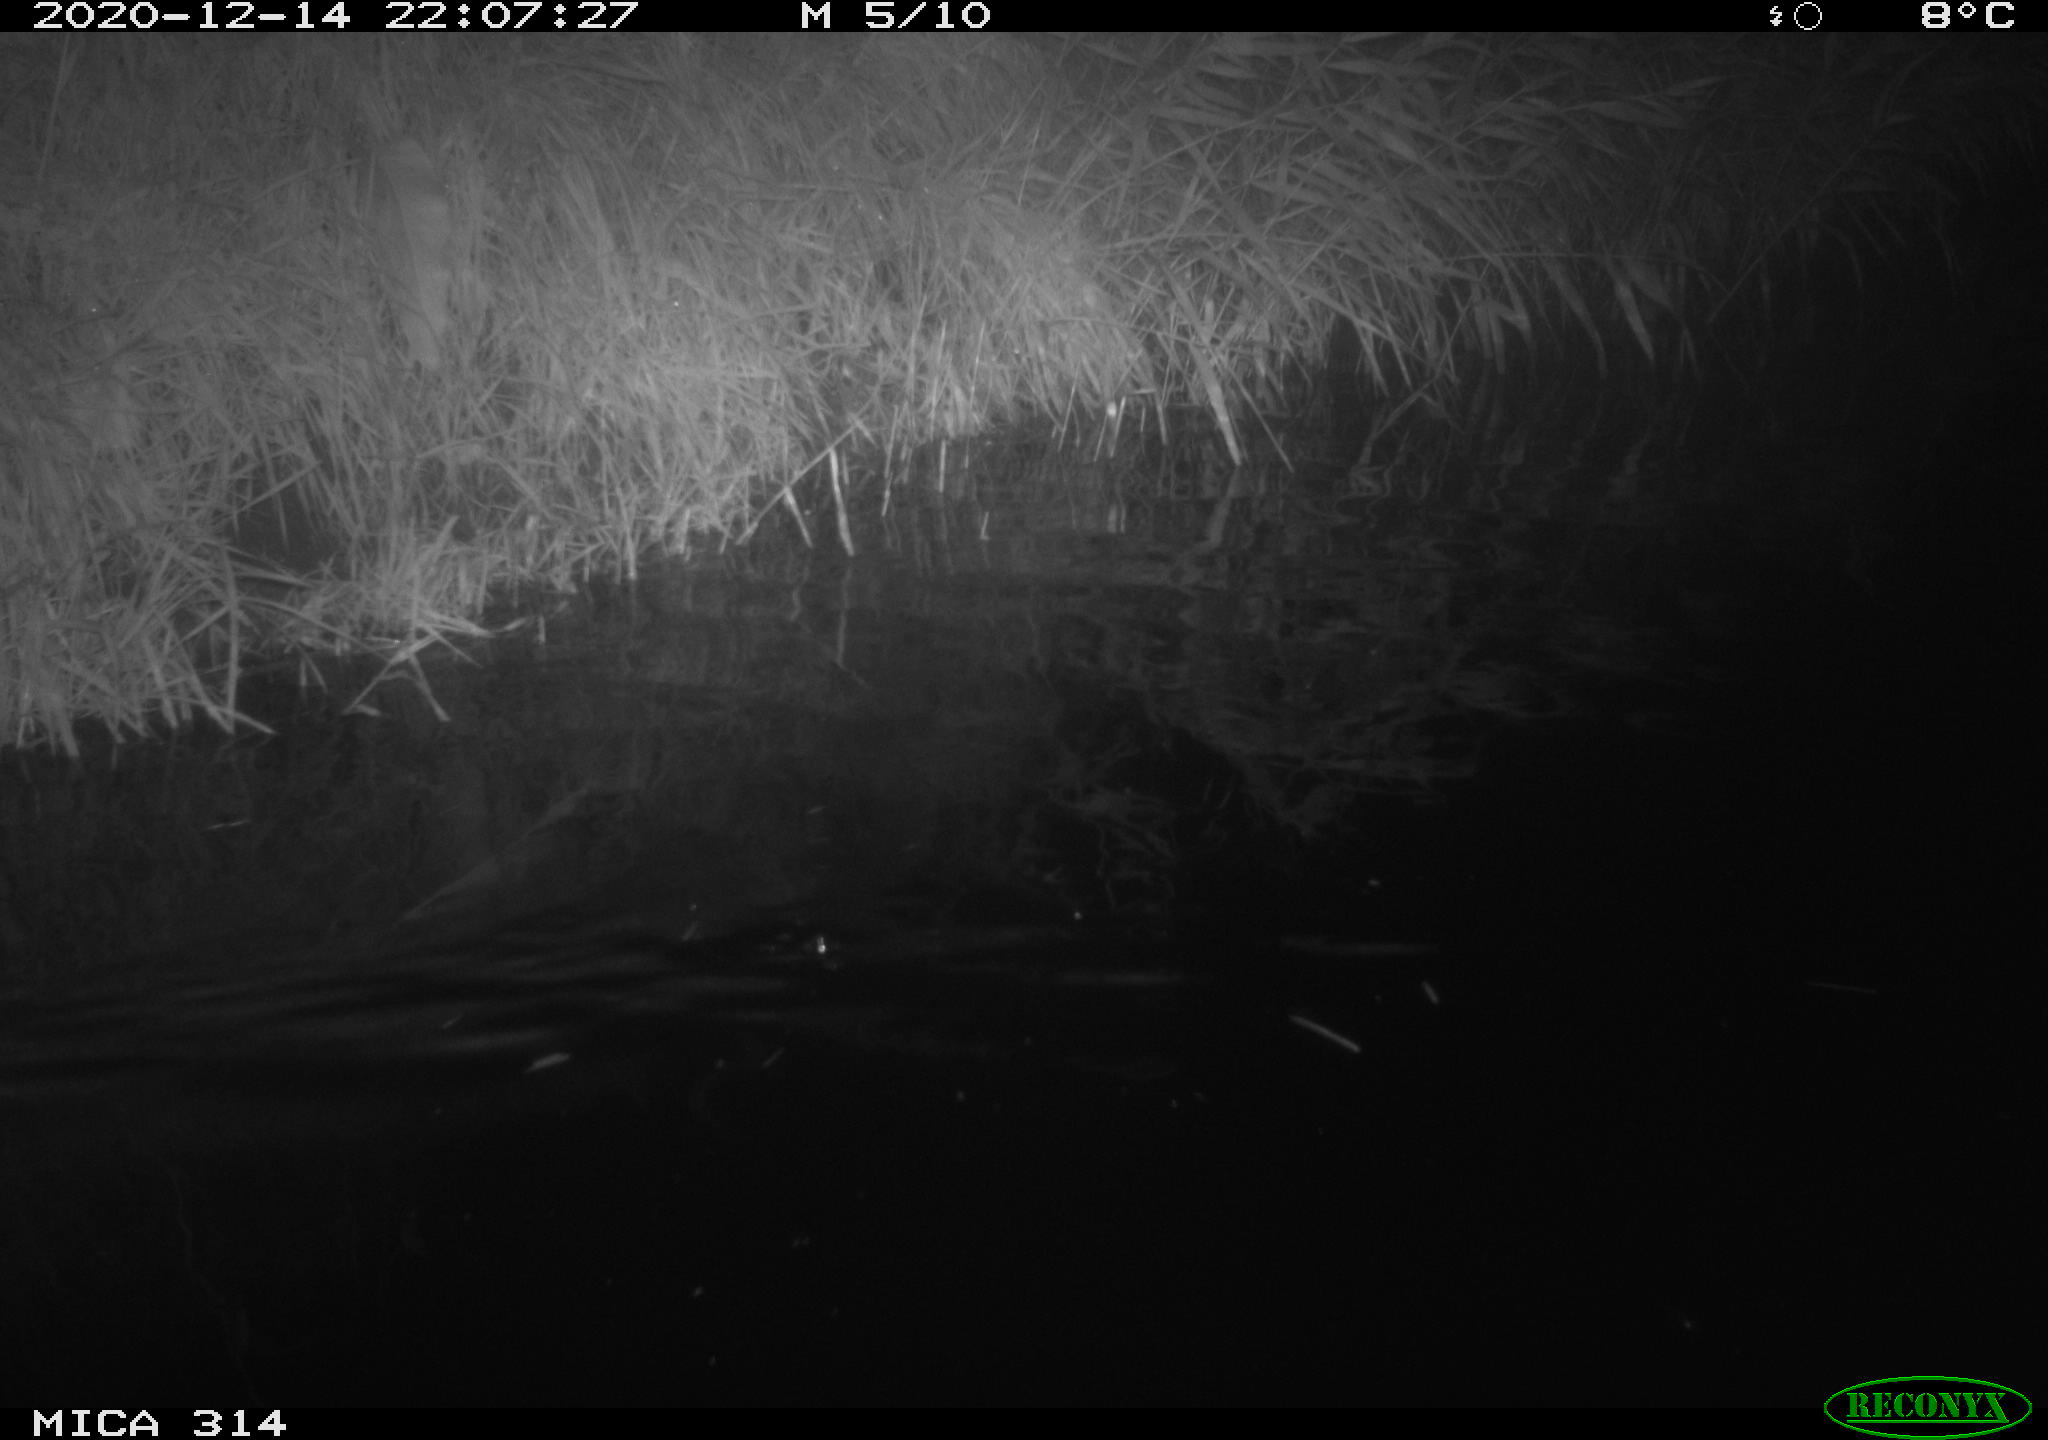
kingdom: Animalia
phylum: Chordata
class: Mammalia
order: Rodentia
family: Muridae
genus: Rattus
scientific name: Rattus norvegicus
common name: Brown rat
